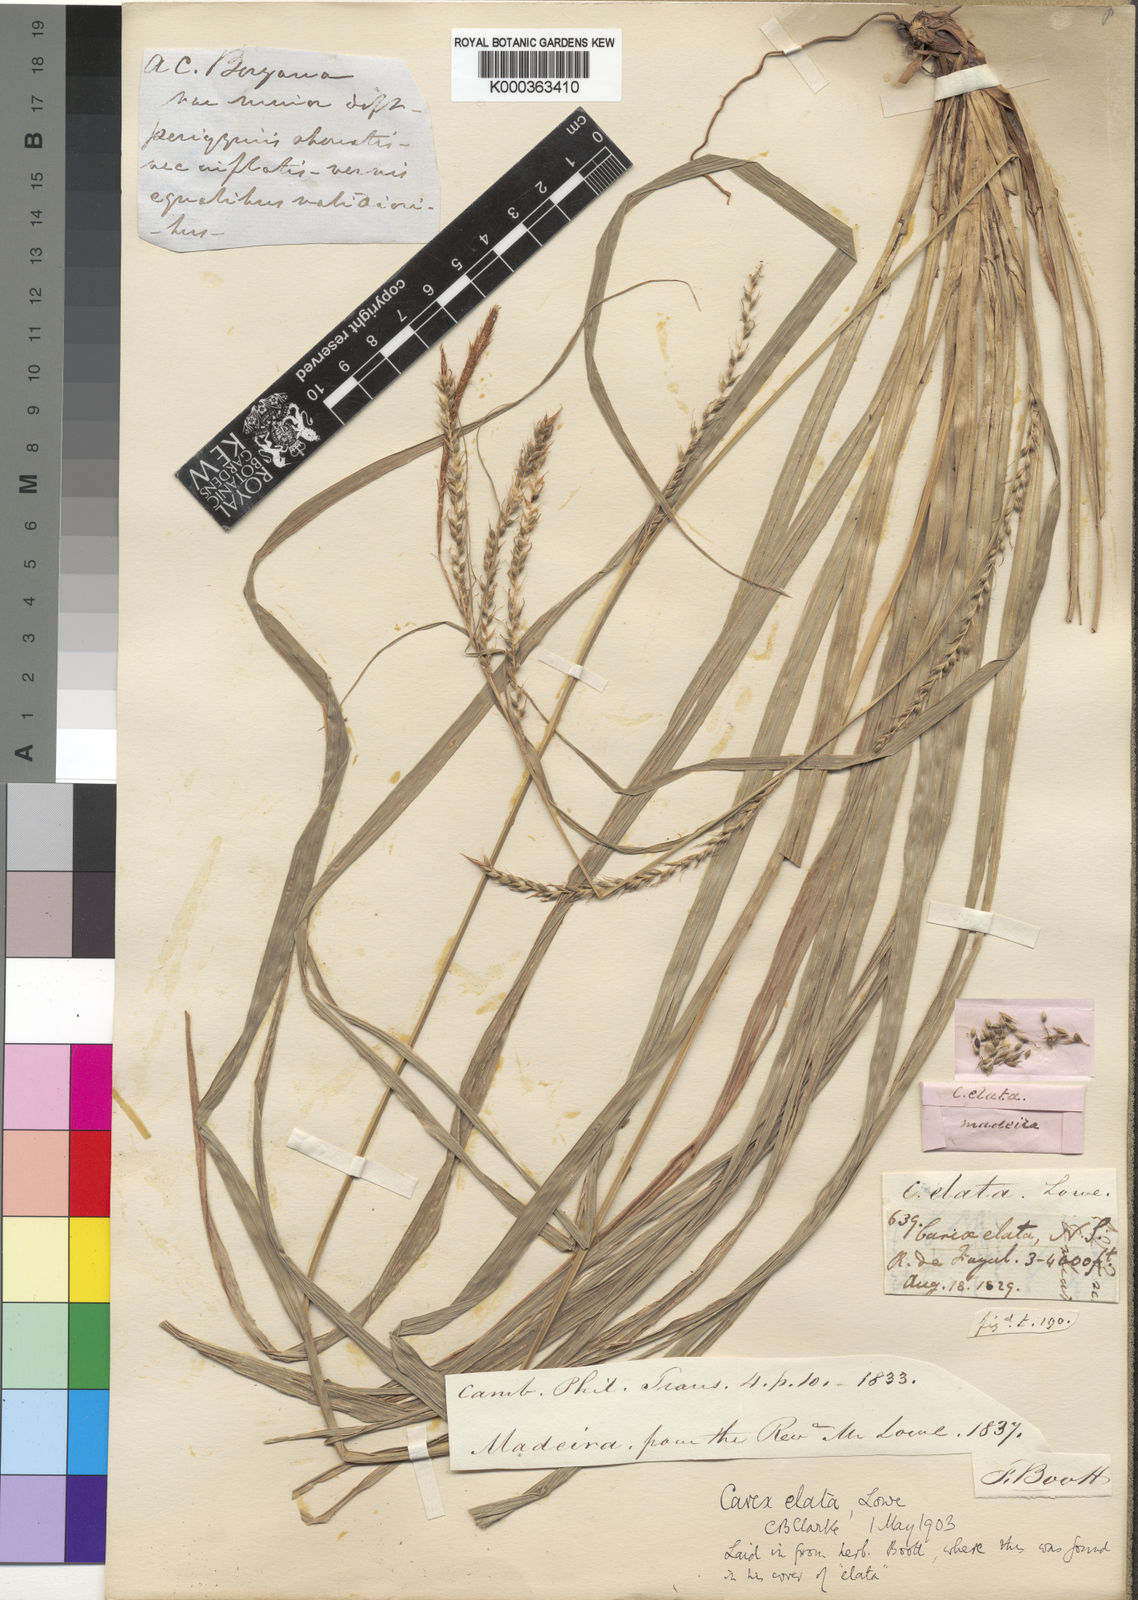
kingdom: Plantae
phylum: Tracheophyta
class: Liliopsida
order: Poales
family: Cyperaceae
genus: Carex
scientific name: Carex
